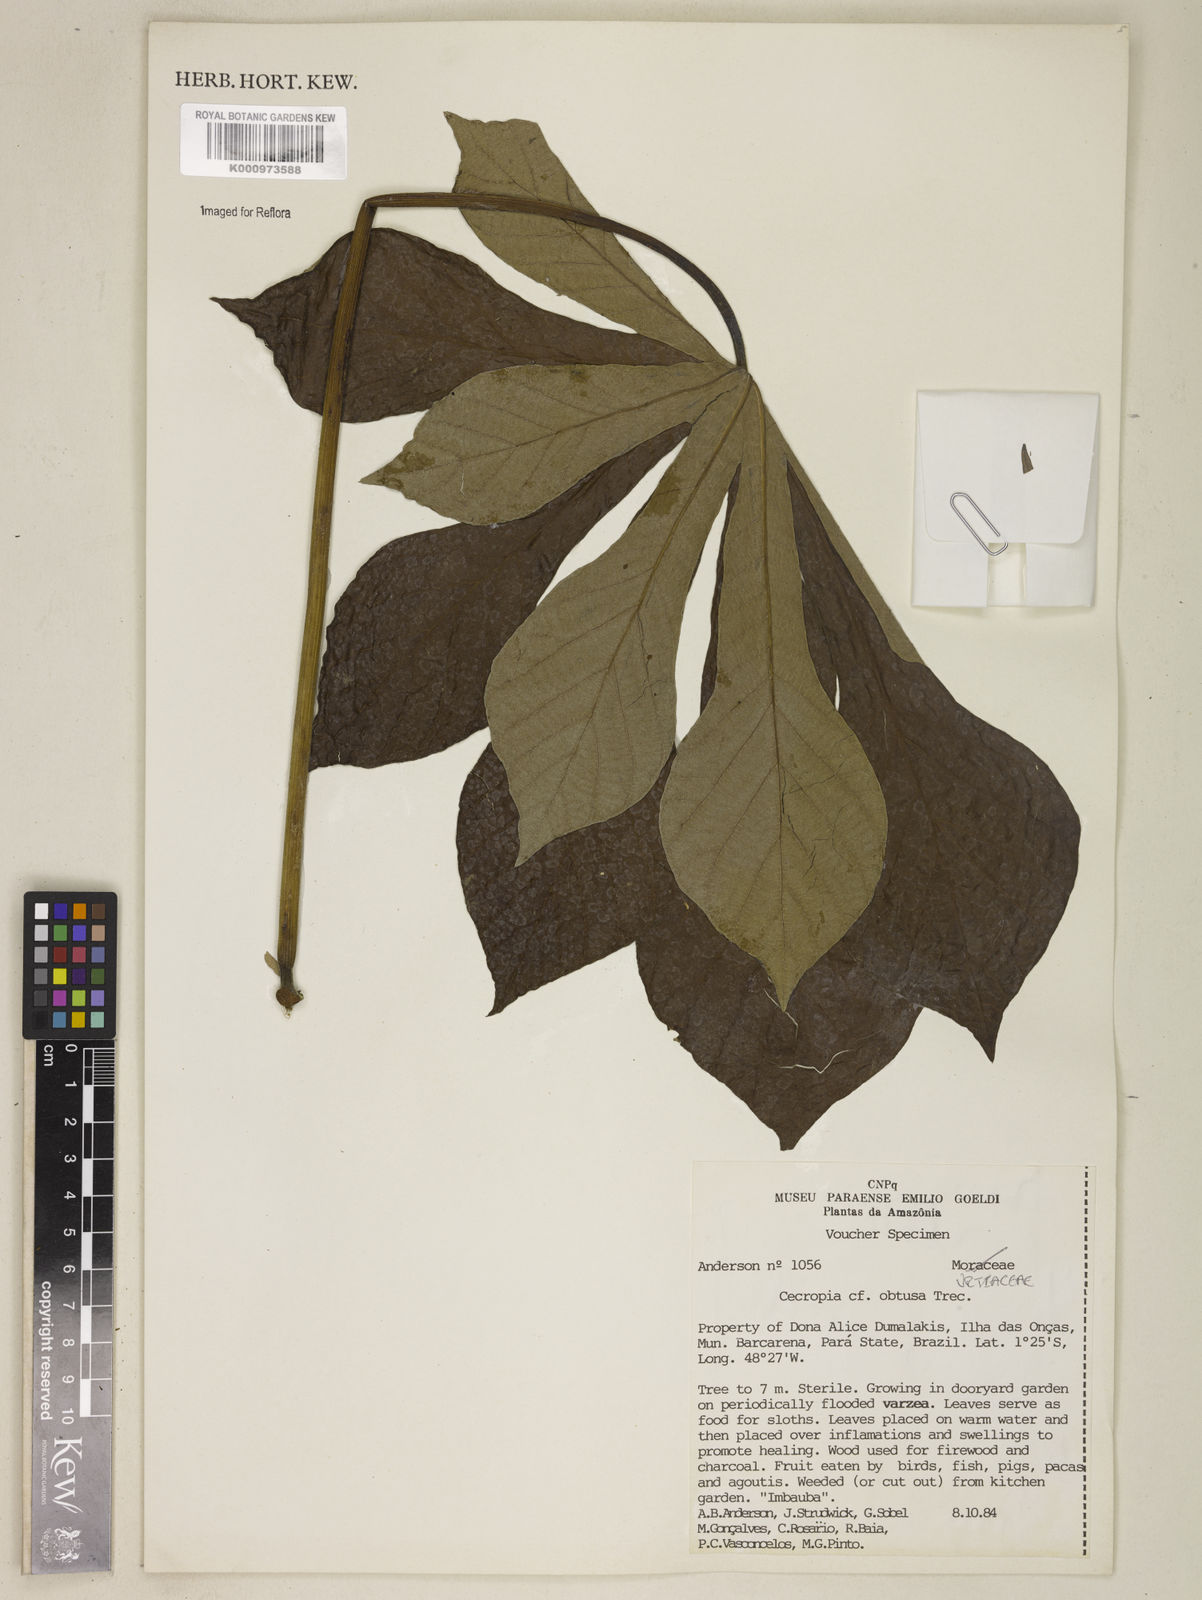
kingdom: Plantae
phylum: Tracheophyta
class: Magnoliopsida
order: Rosales
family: Urticaceae
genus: Cecropia
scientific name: Cecropia
